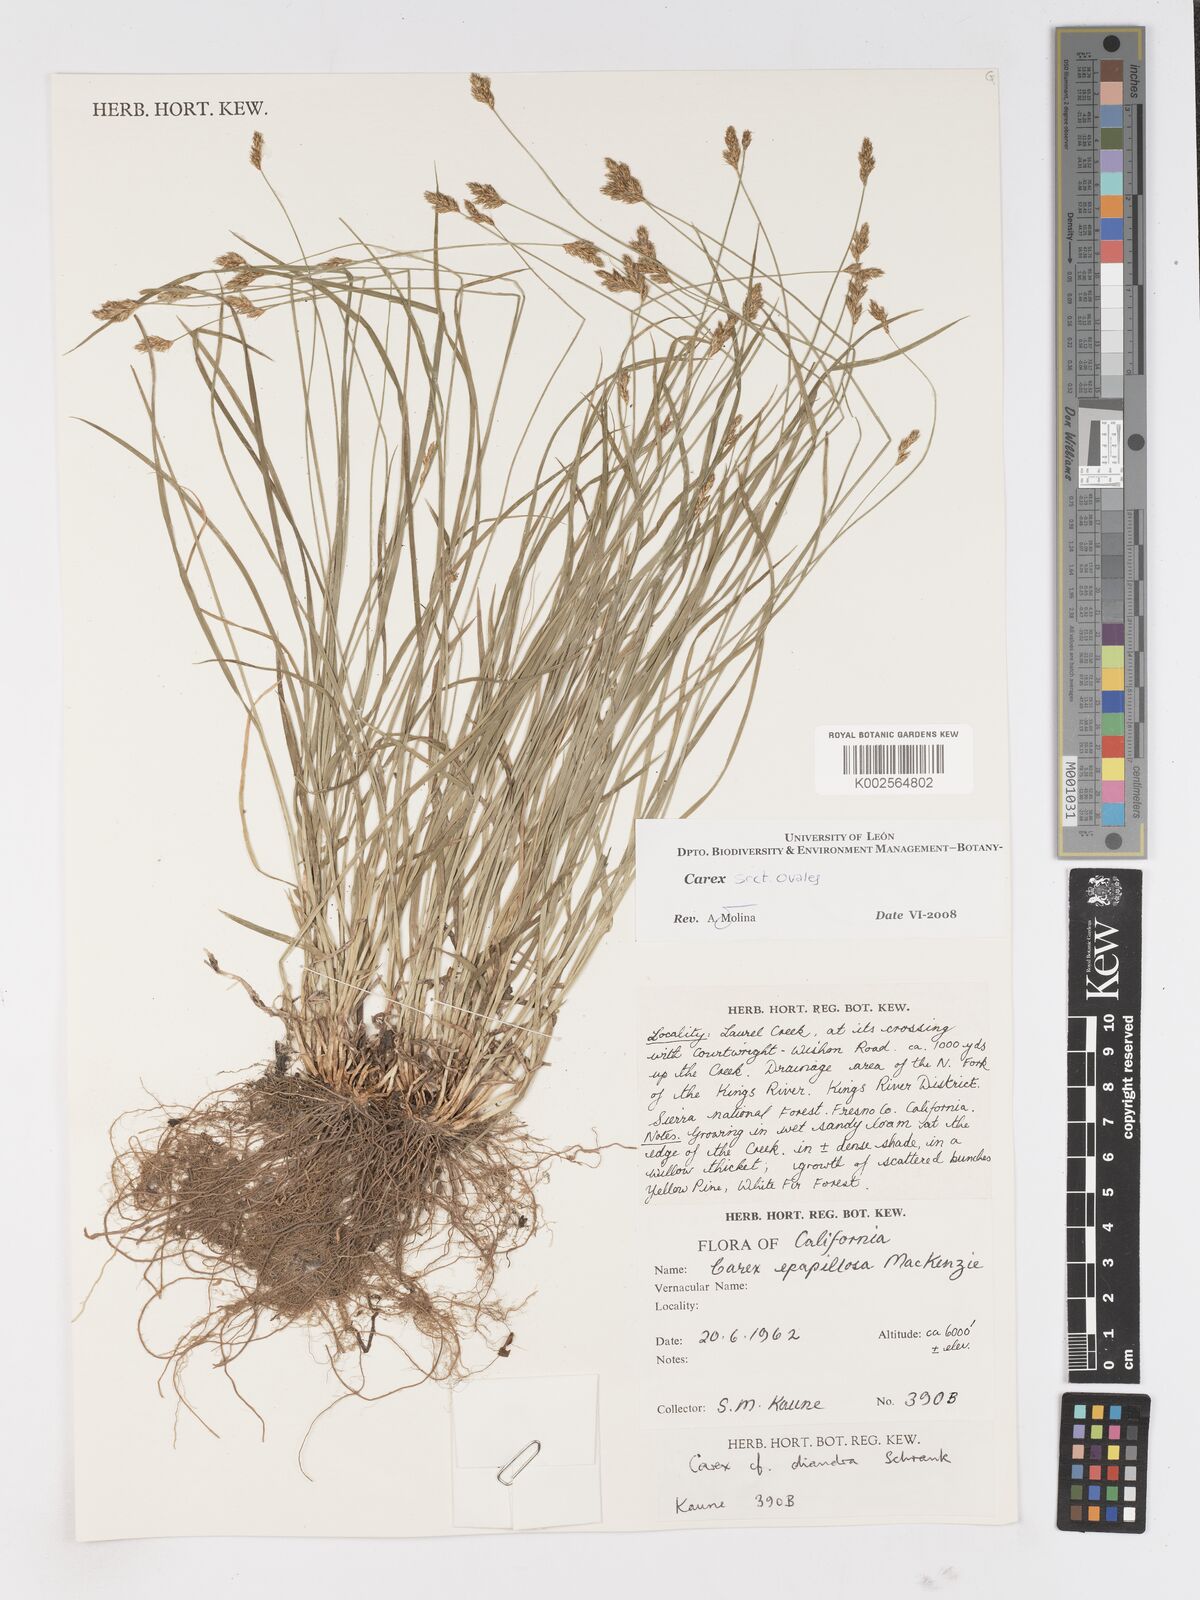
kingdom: Plantae
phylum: Tracheophyta
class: Liliopsida
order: Poales
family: Cyperaceae
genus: Carex
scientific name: Carex
